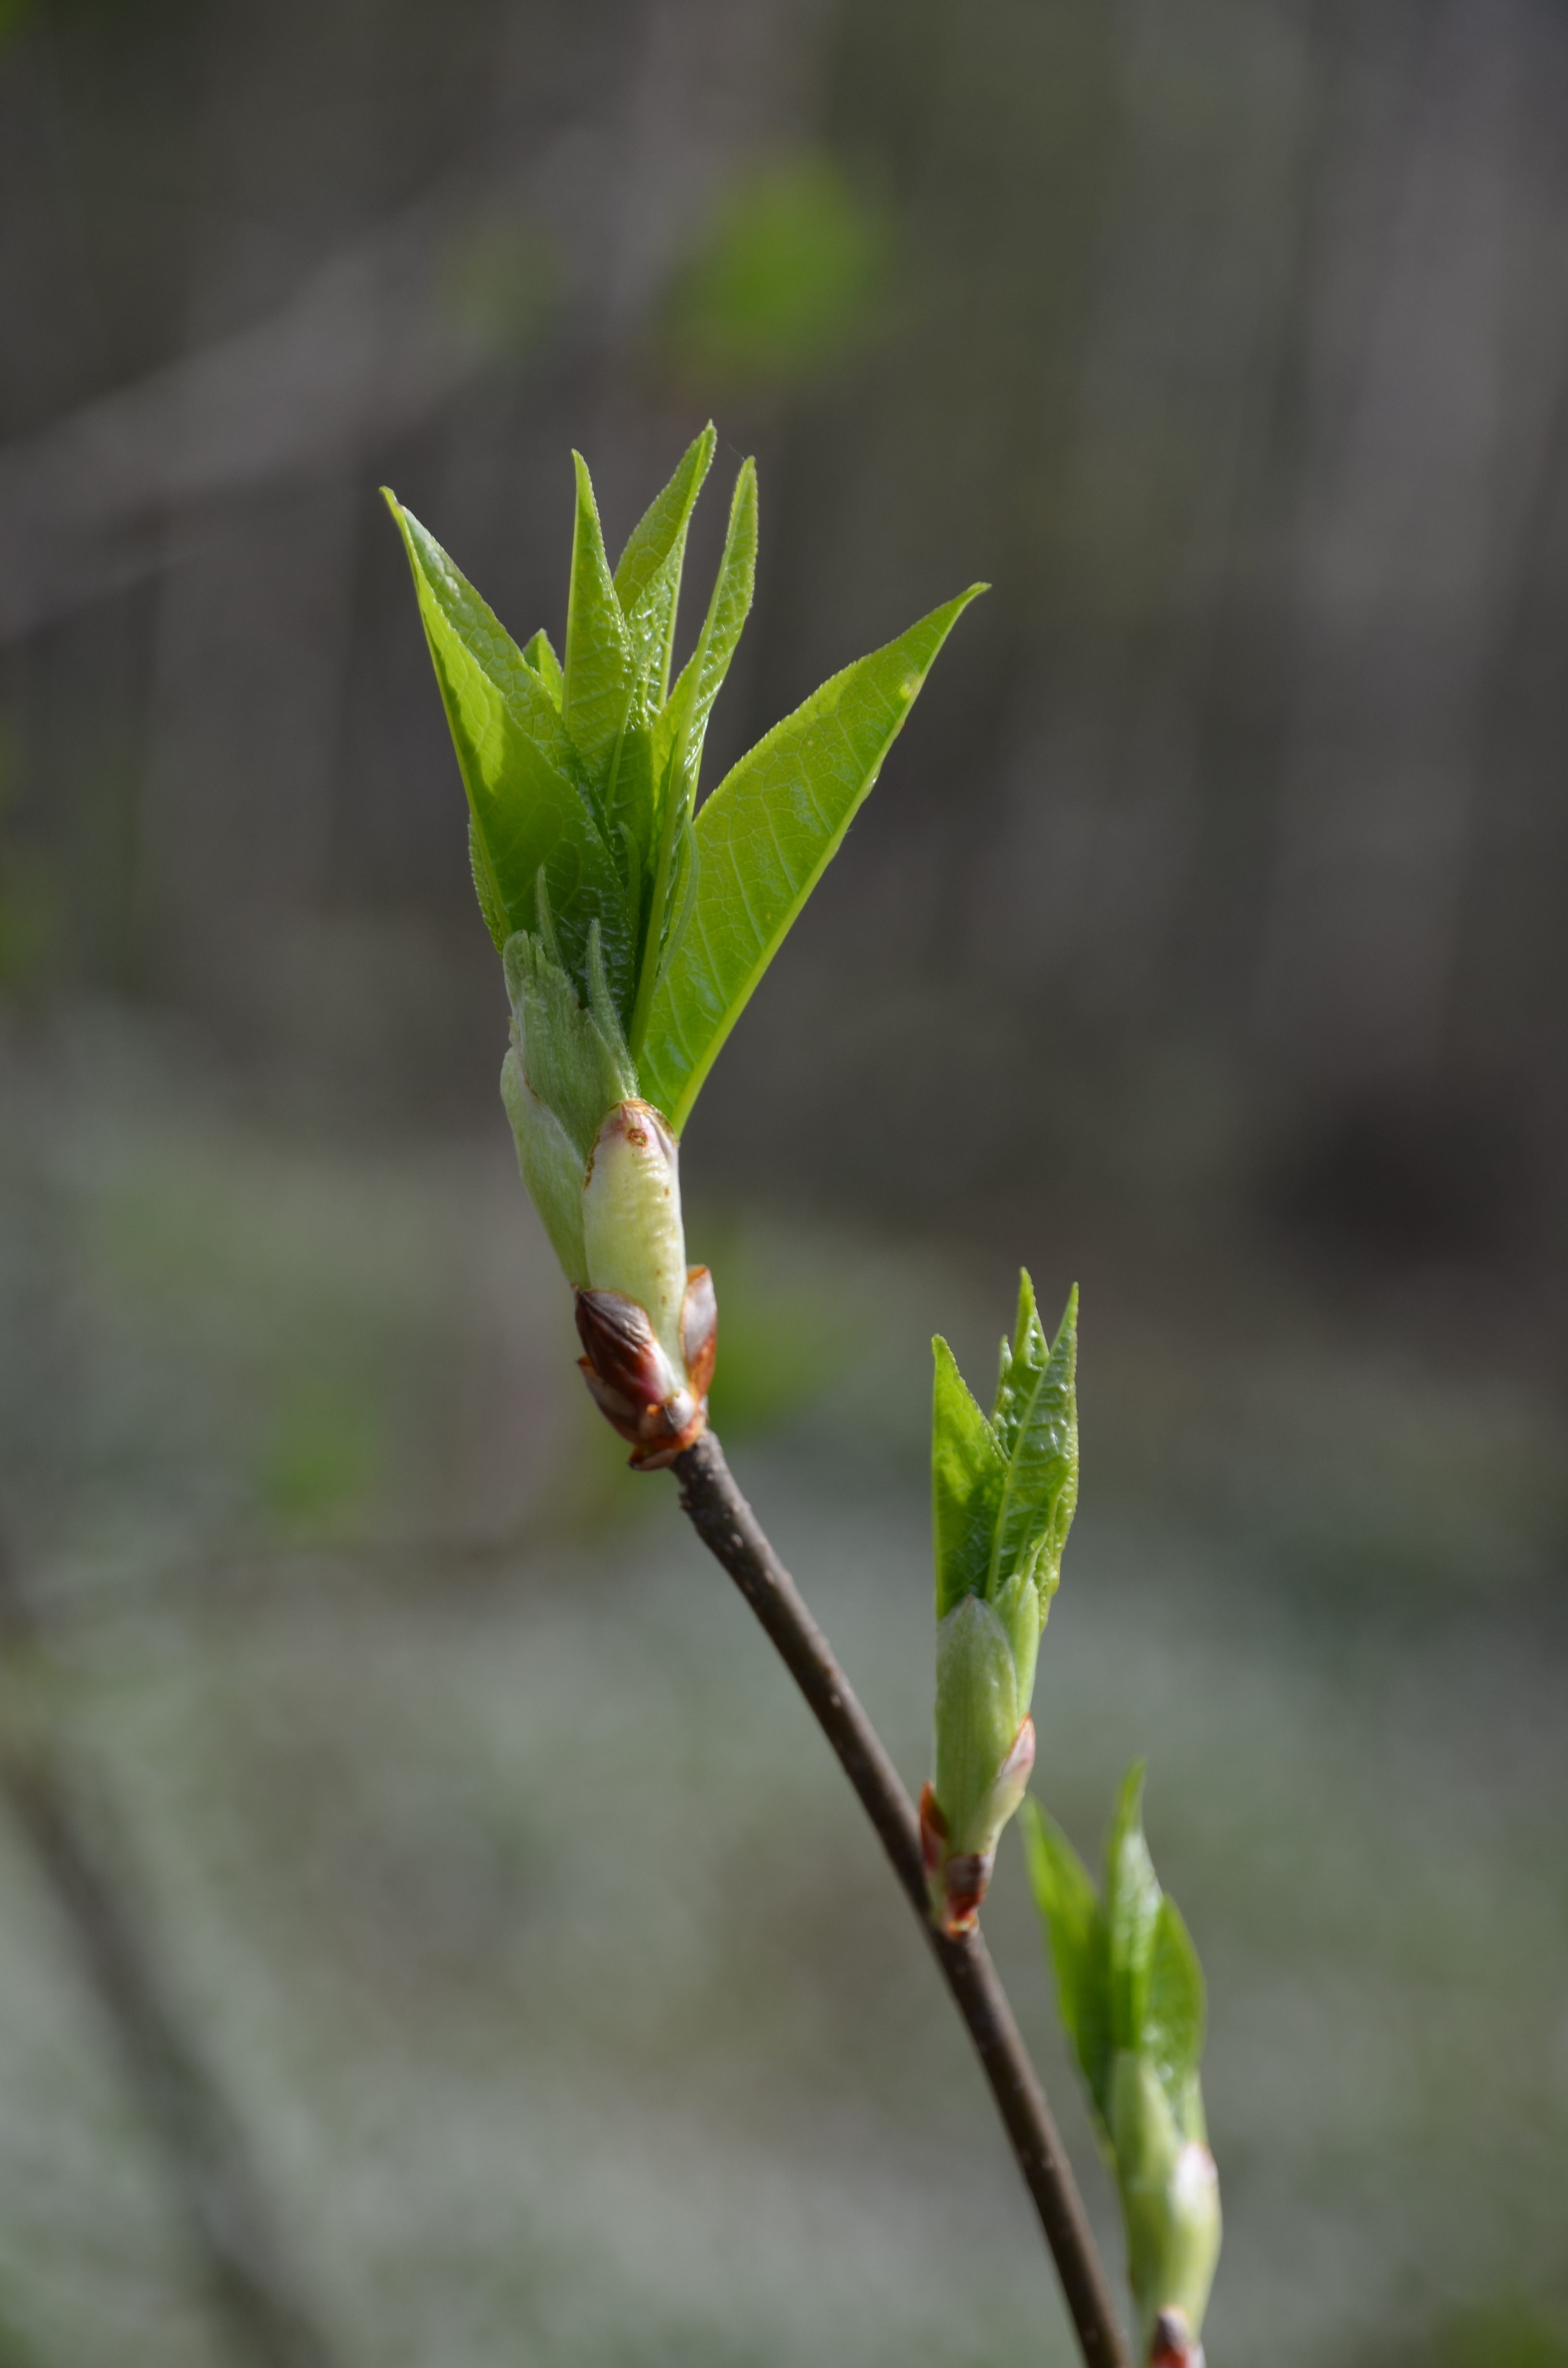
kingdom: Plantae
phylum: Tracheophyta
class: Magnoliopsida
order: Rosales
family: Rosaceae
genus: Prunus
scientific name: Prunus padus
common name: Bird cherry
